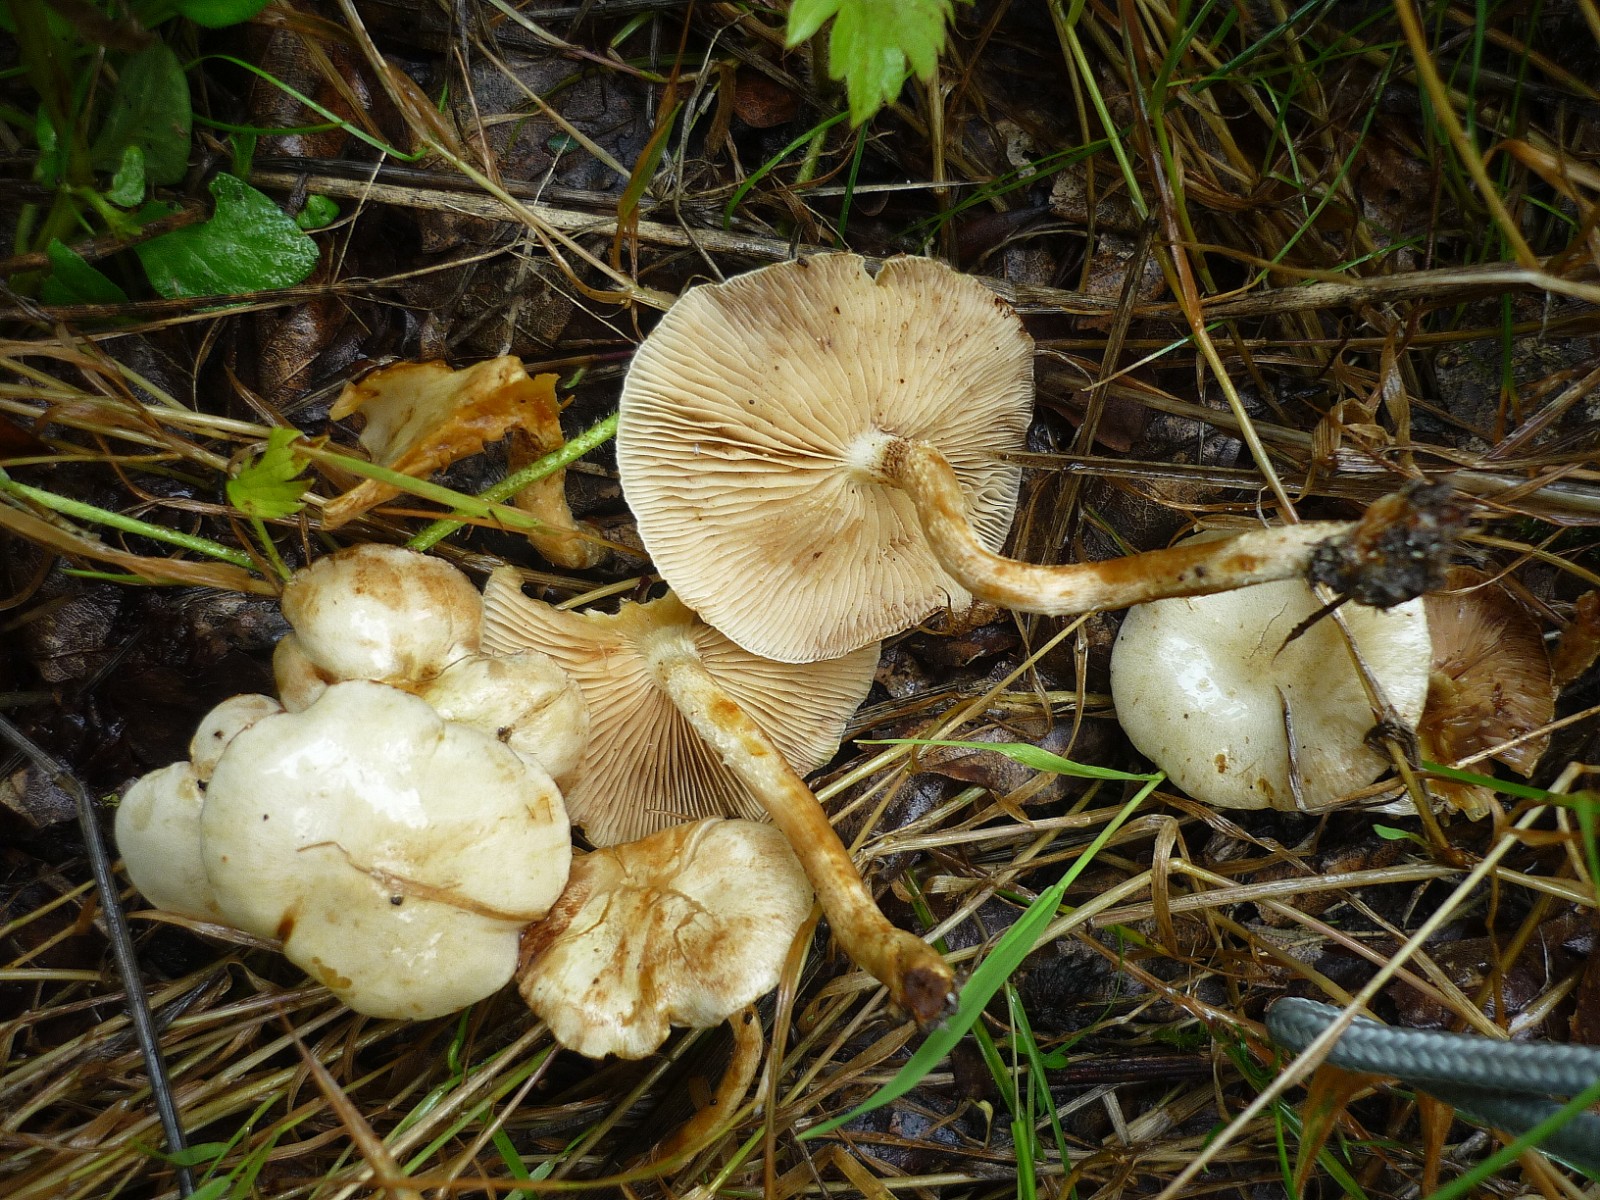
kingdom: Fungi
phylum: Basidiomycota
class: Agaricomycetes
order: Agaricales
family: Strophariaceae
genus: Pholiota
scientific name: Pholiota gummosa
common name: grøngul skælhat
